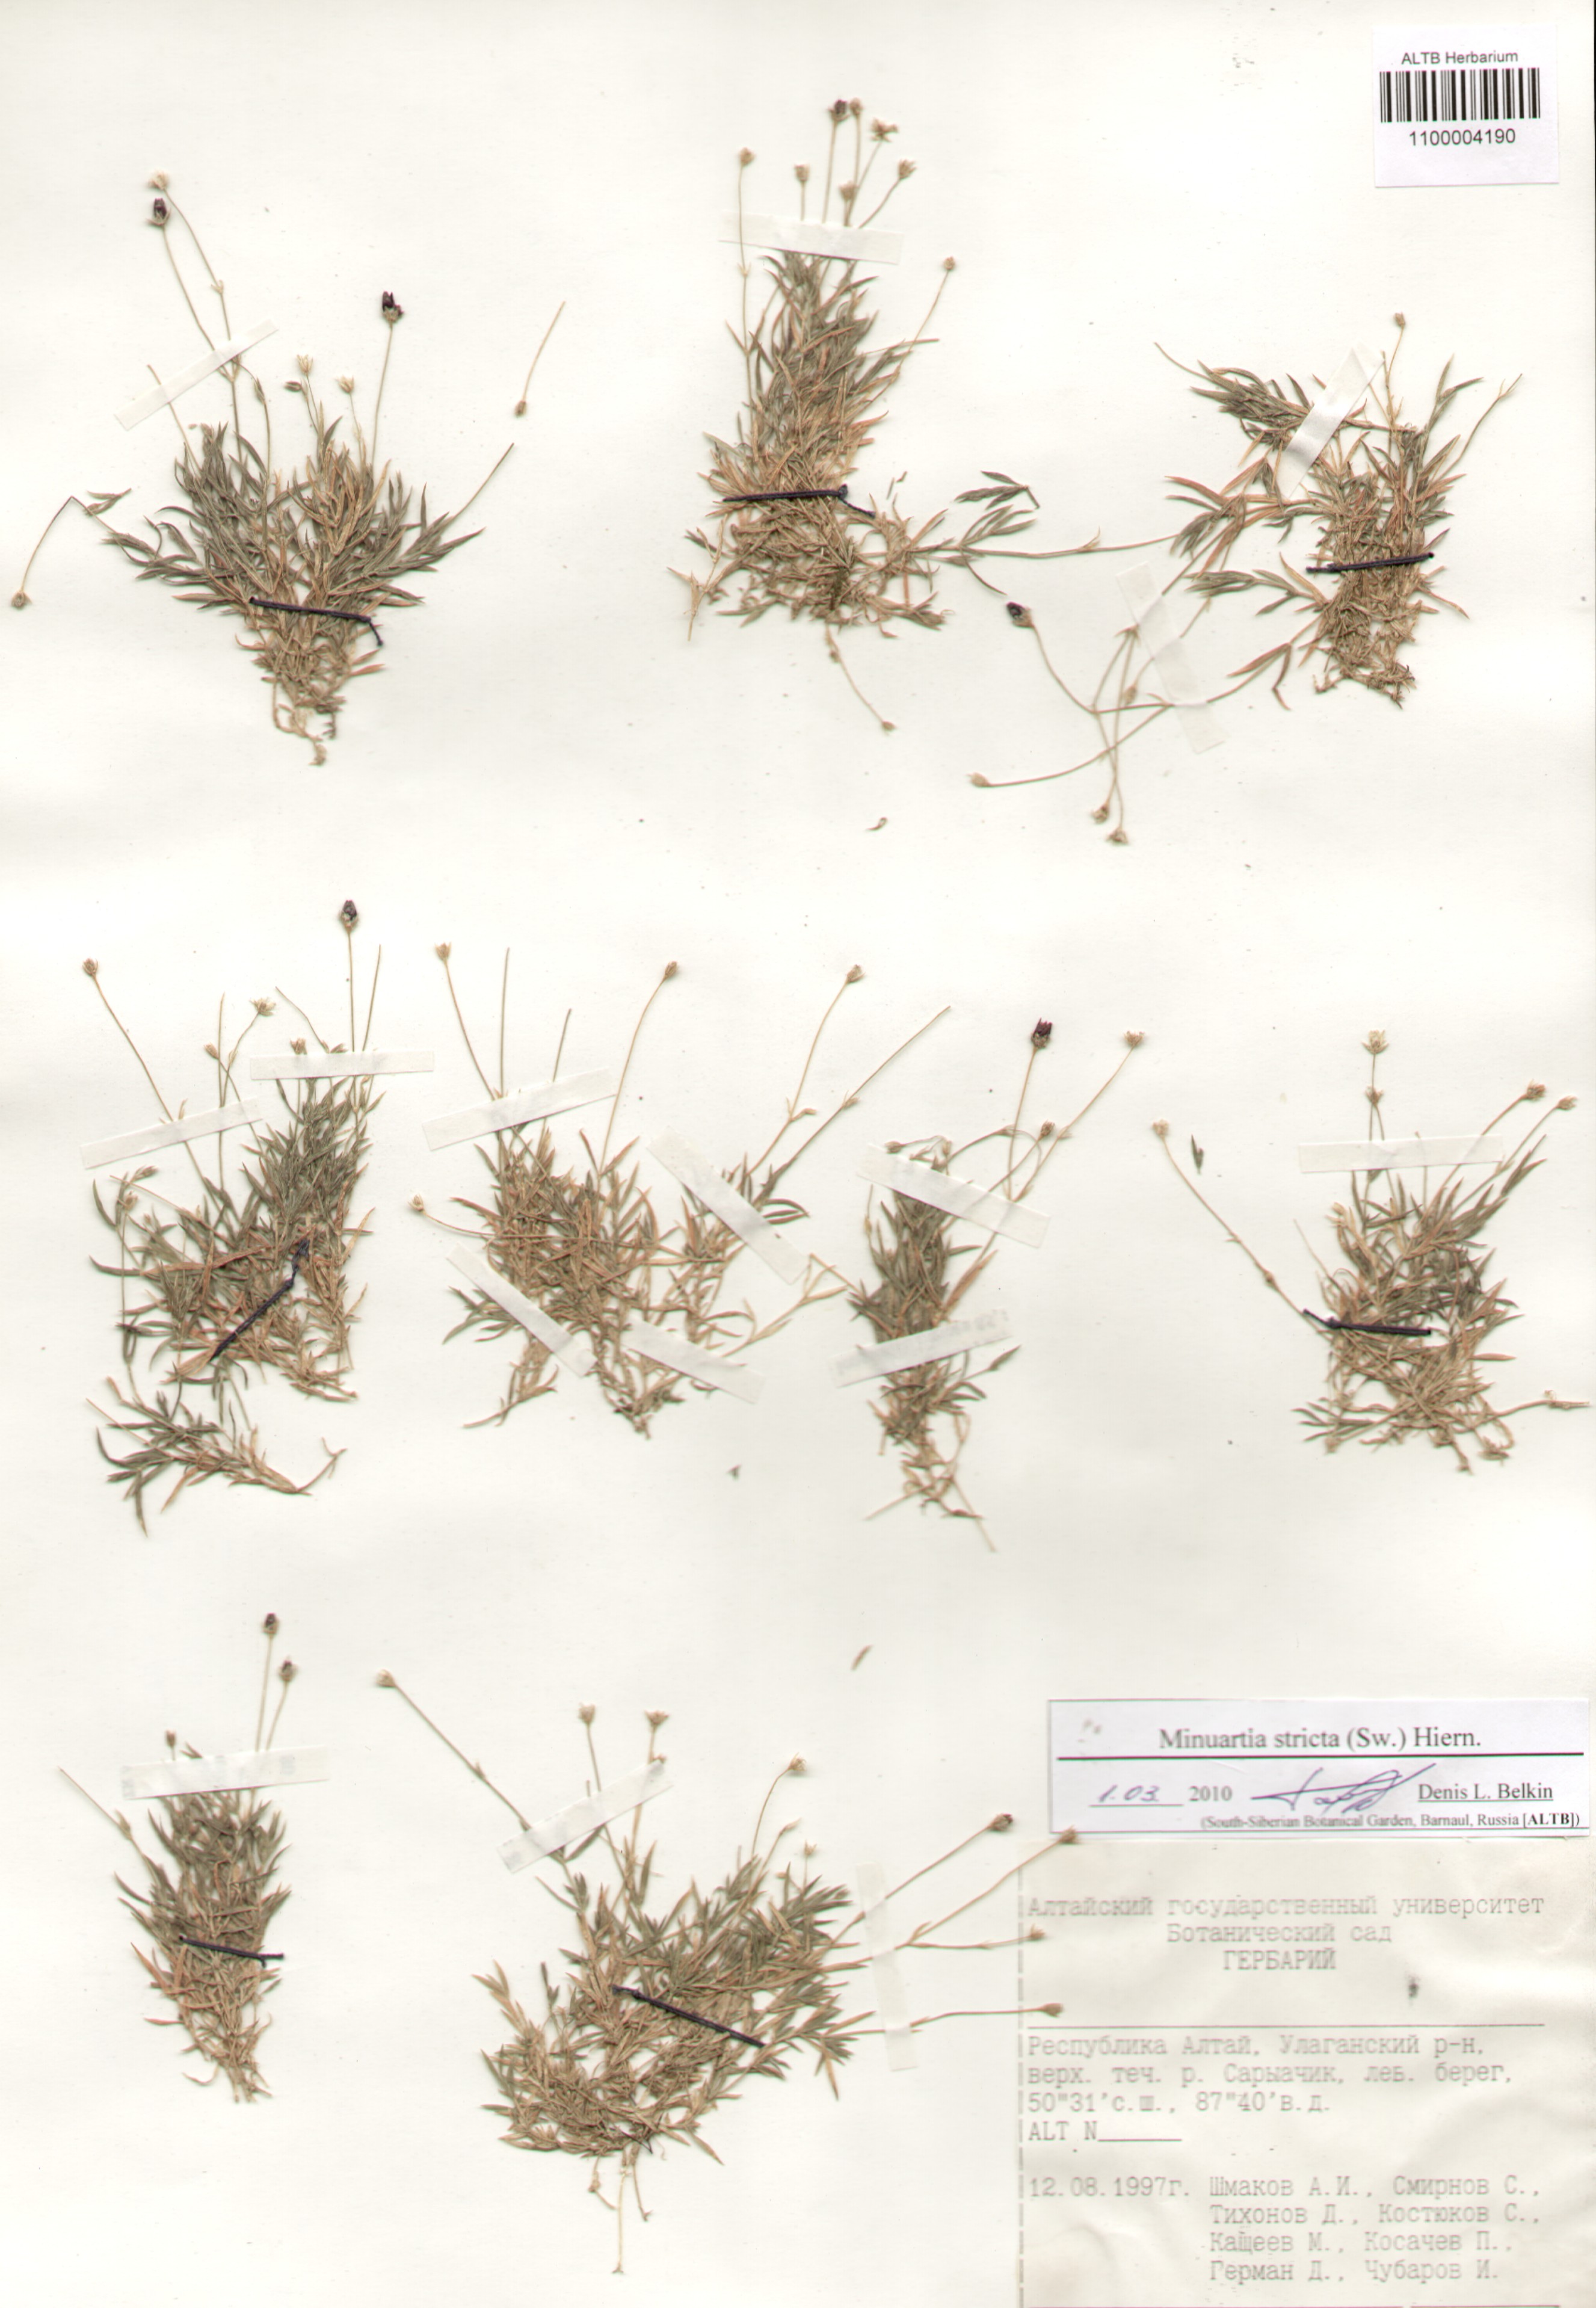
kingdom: Plantae
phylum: Tracheophyta
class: Magnoliopsida
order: Caryophyllales
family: Caryophyllaceae
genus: Sabulina
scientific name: Sabulina stricta
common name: Bog sandwort
